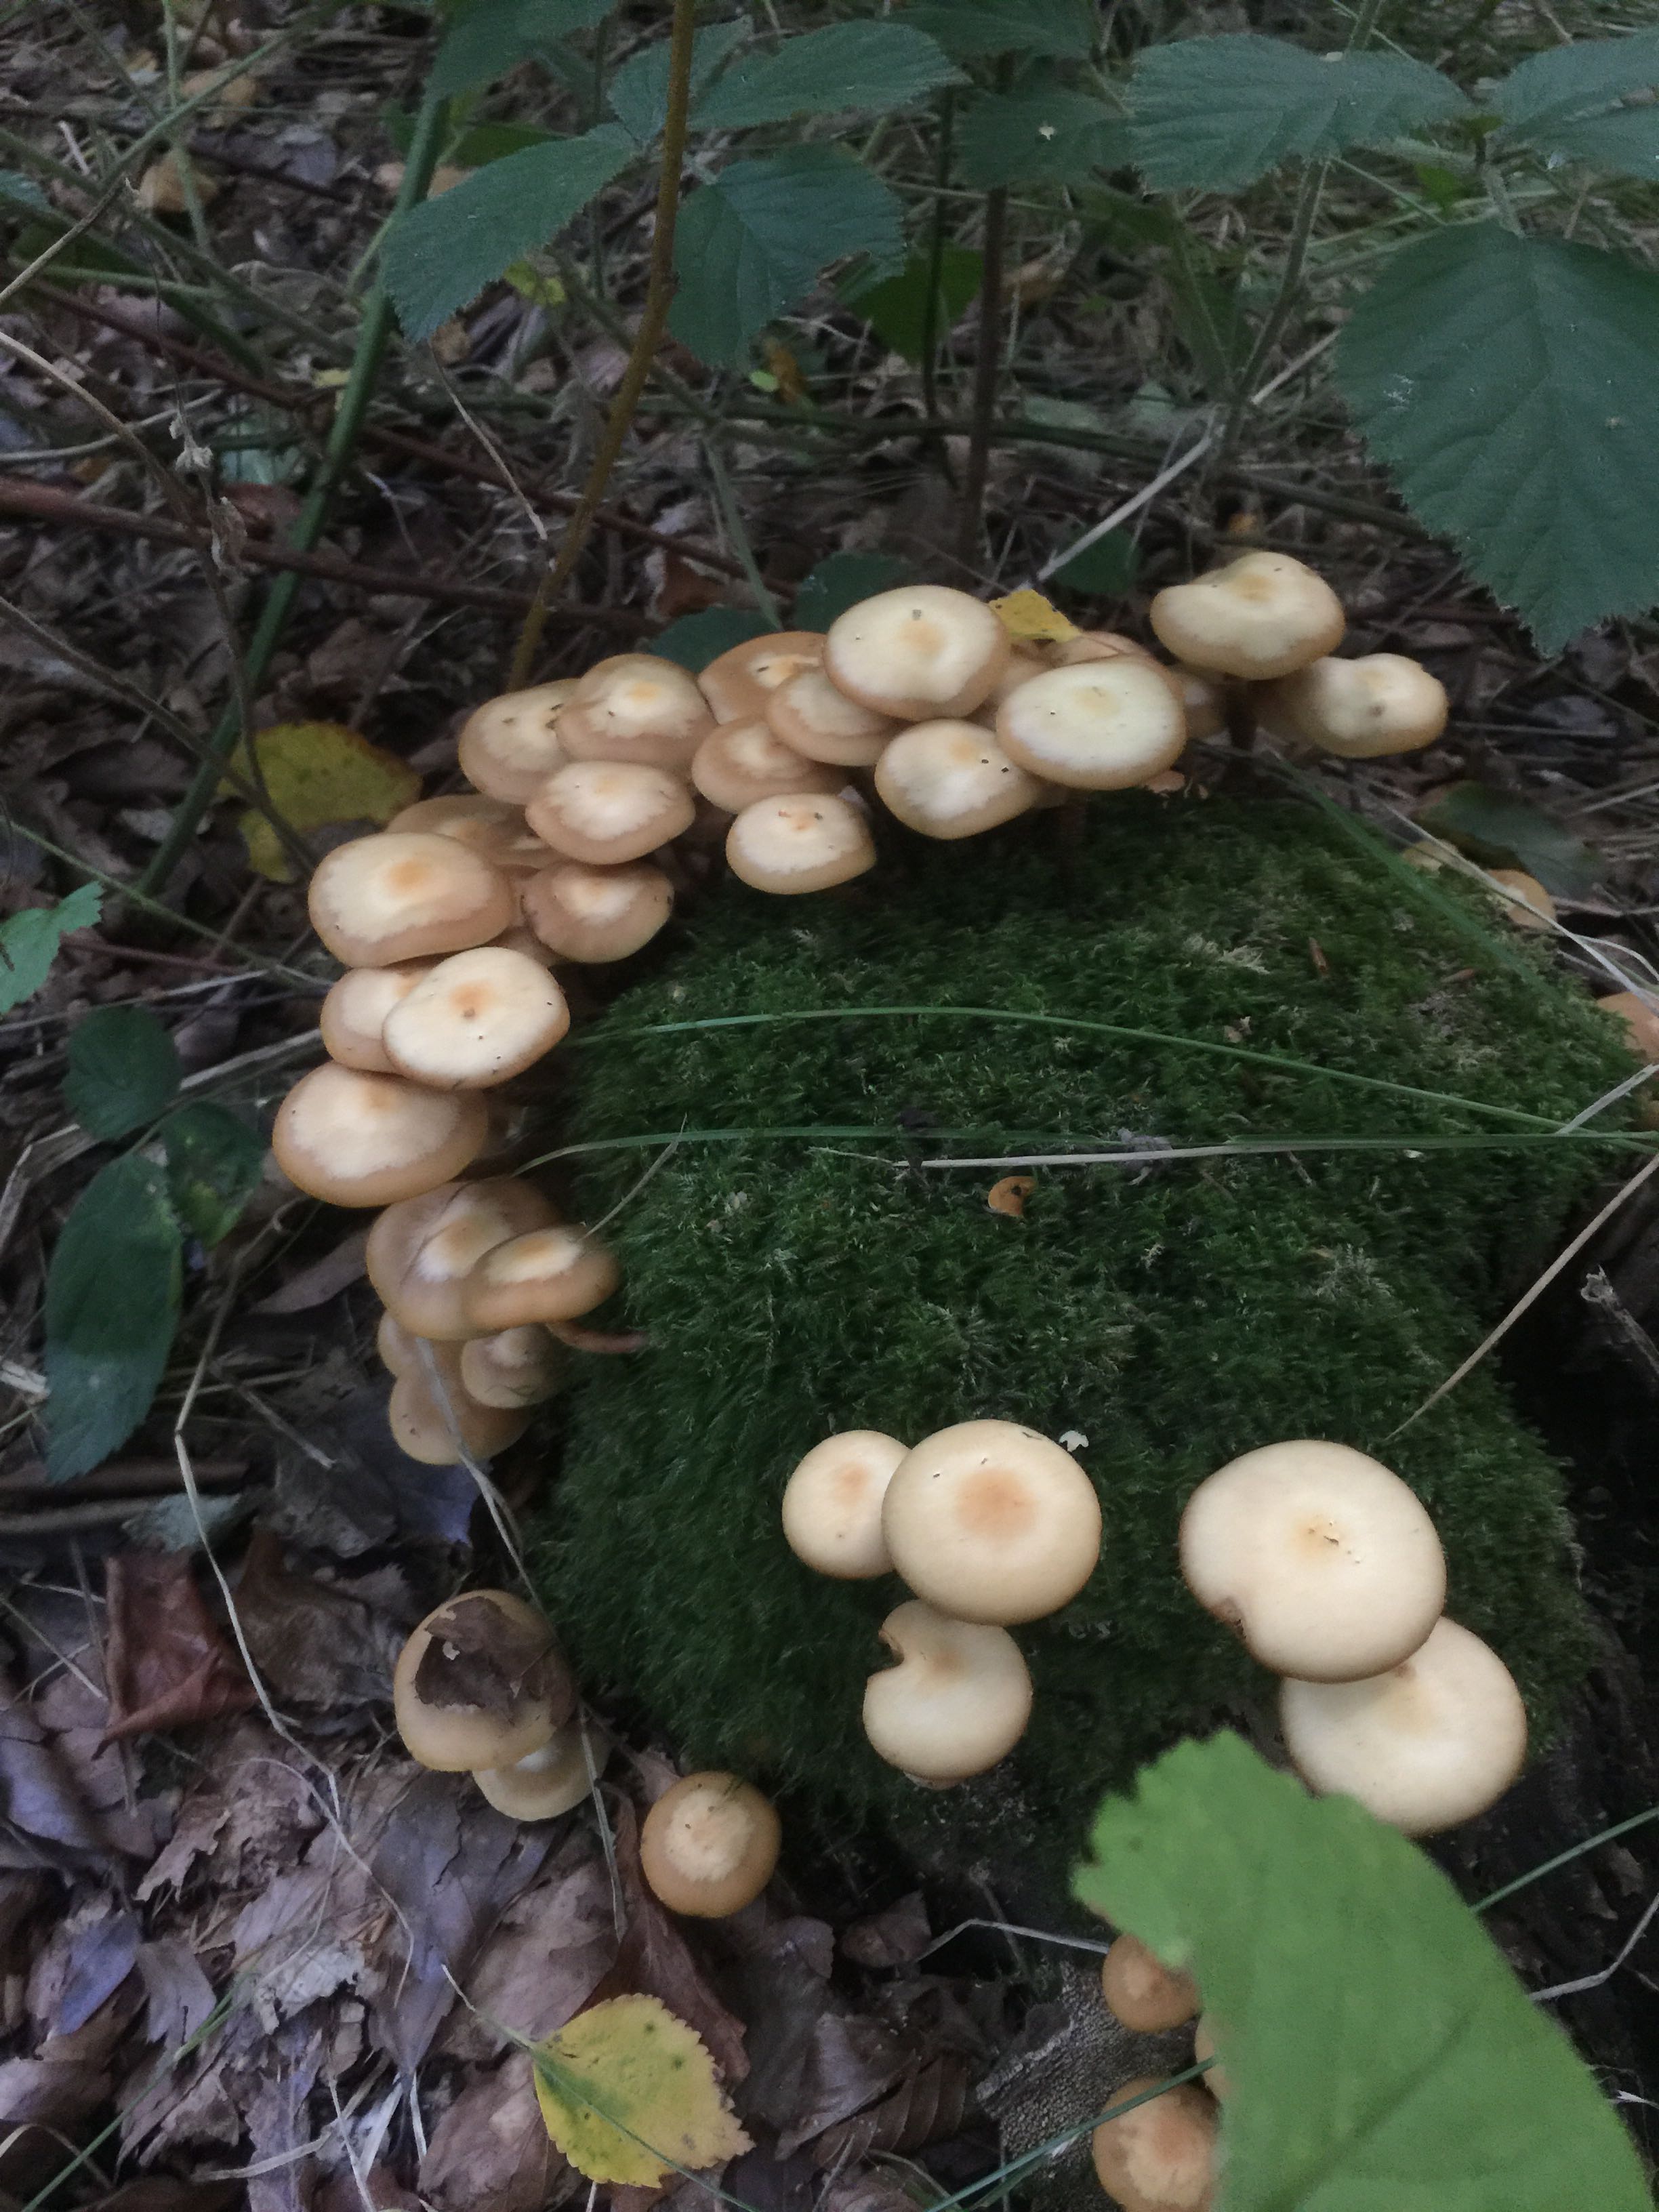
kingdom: Fungi
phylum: Basidiomycota
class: Agaricomycetes
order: Agaricales
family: Strophariaceae
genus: Kuehneromyces
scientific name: Kuehneromyces mutabilis
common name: foranderlig skælhat
